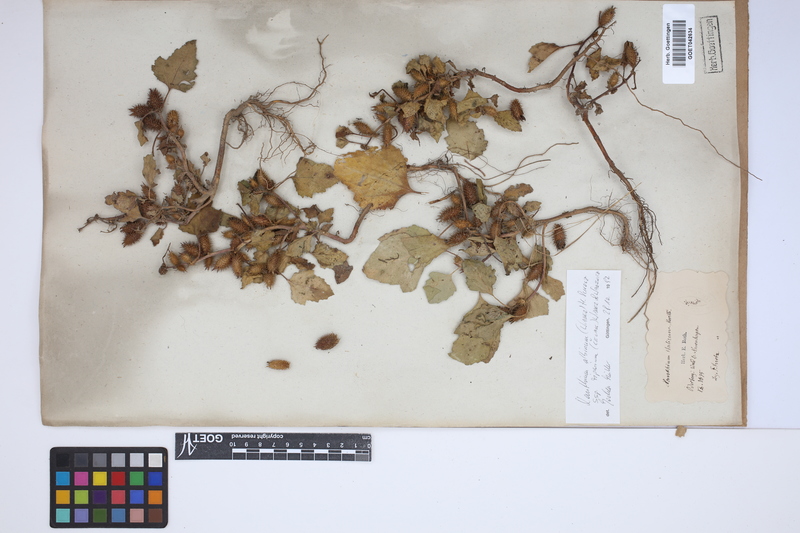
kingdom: Plantae
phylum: Tracheophyta
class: Magnoliopsida
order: Asterales
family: Asteraceae
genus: Xanthium
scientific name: Xanthium orientale
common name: Californian burr
